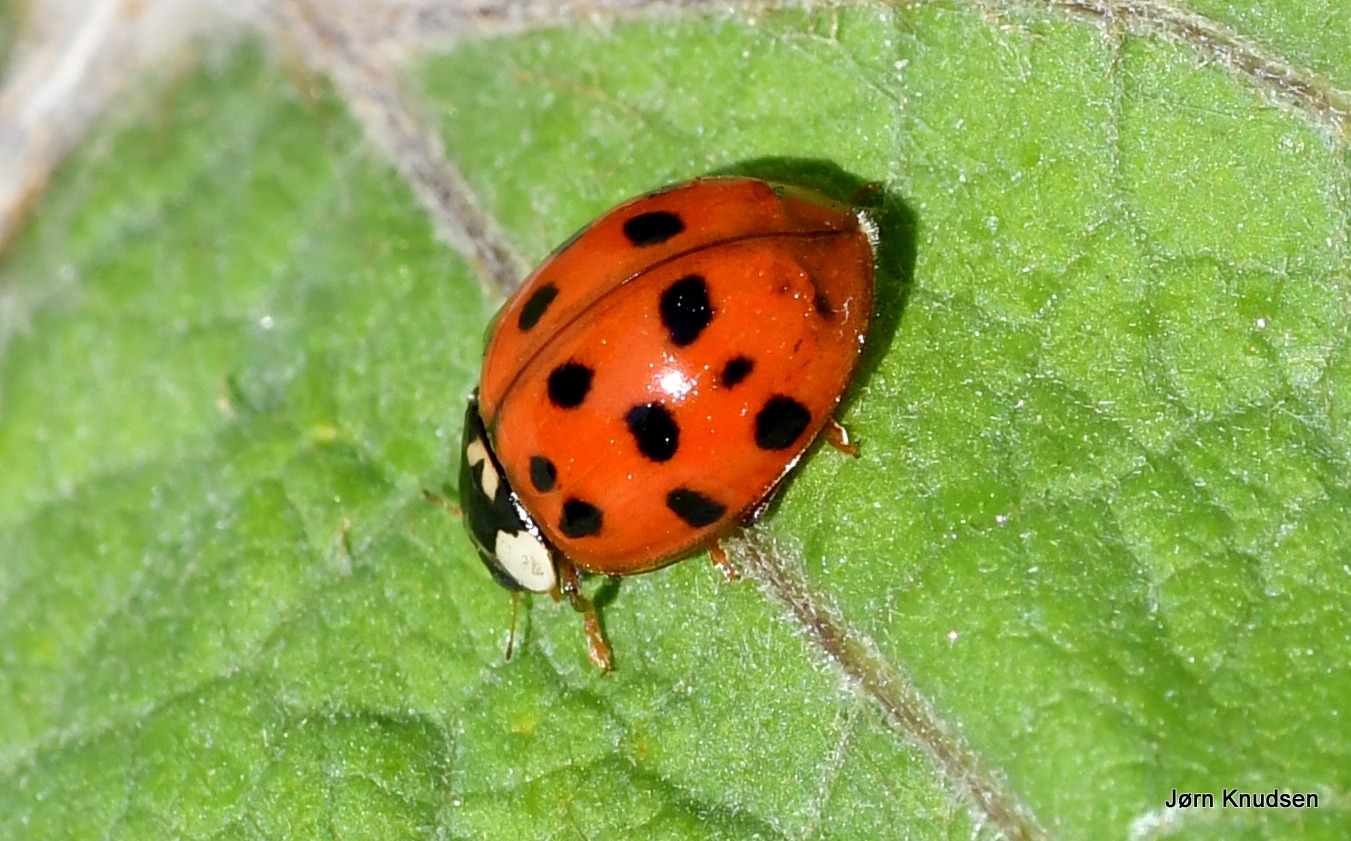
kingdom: Animalia
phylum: Arthropoda
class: Insecta
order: Coleoptera
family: Coccinellidae
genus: Harmonia
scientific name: Harmonia axyridis
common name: Harlekinmariehøne
